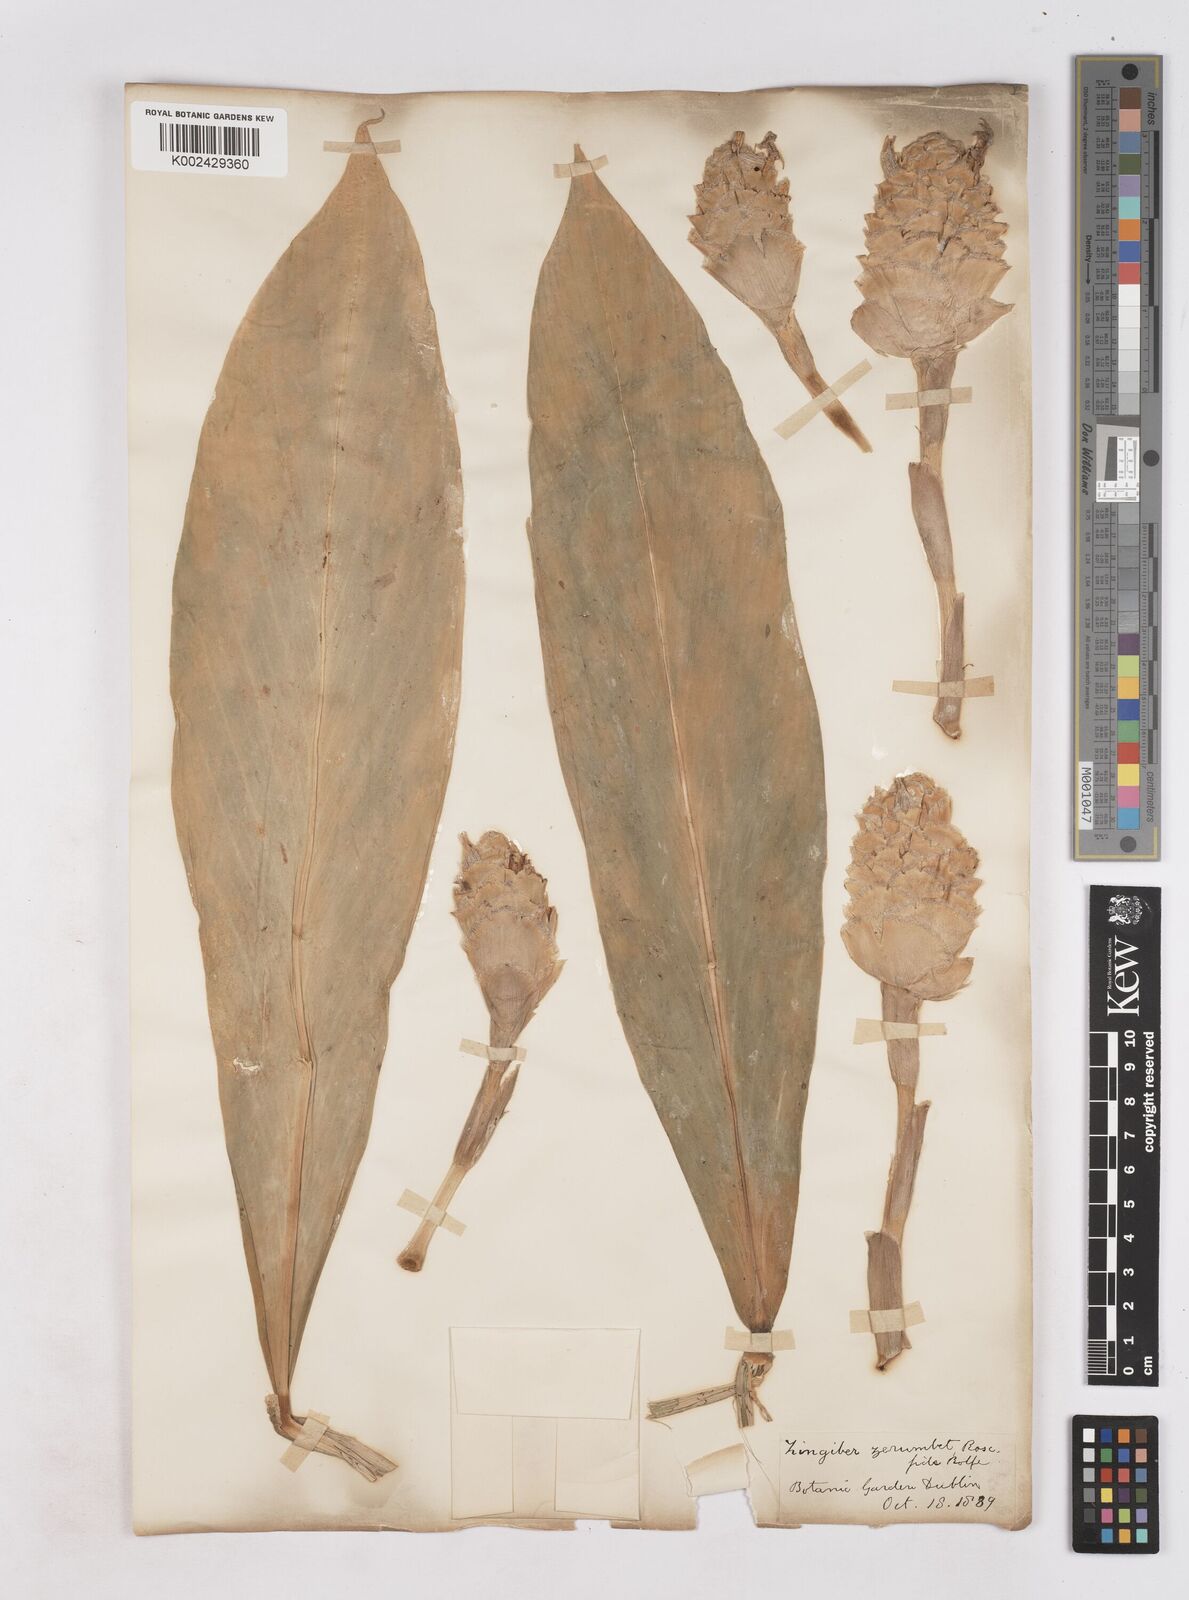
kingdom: Plantae
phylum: Tracheophyta
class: Liliopsida
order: Zingiberales
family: Zingiberaceae
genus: Zingiber
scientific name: Zingiber zerumbet
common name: Bitter ginger
